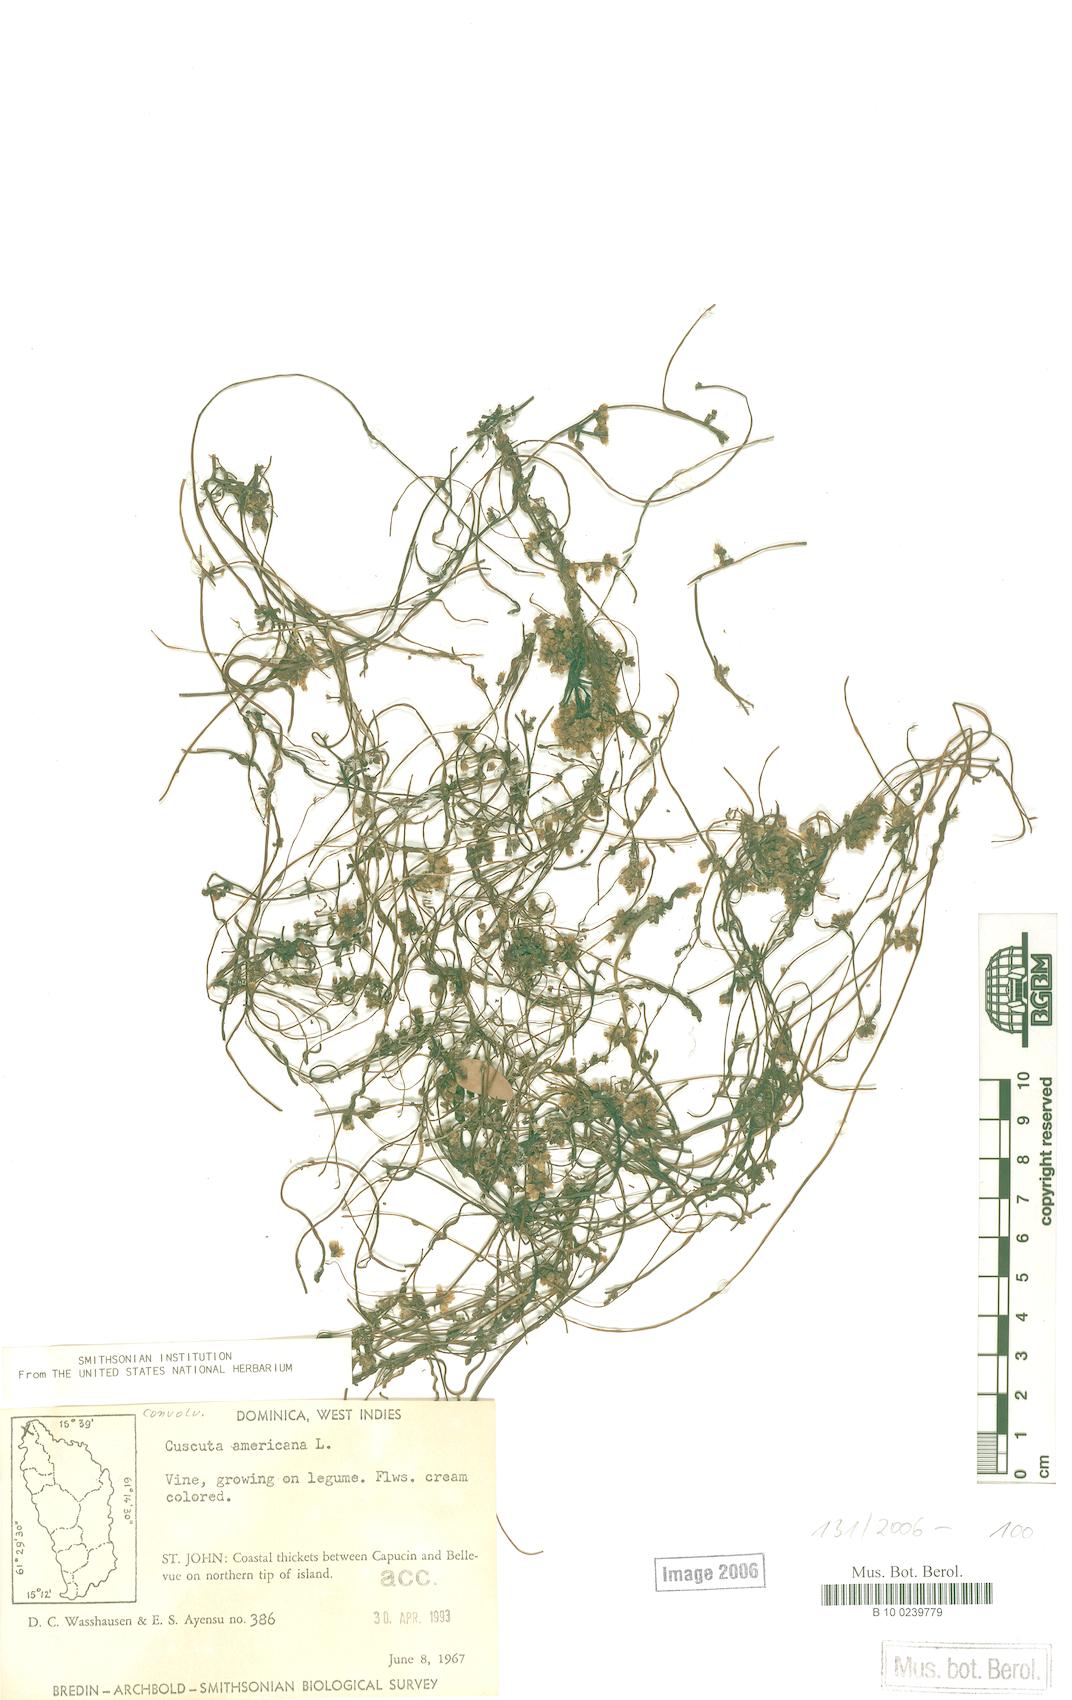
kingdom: Plantae
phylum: Tracheophyta
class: Magnoliopsida
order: Solanales
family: Convolvulaceae
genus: Cuscuta
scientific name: Cuscuta americana
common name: American dodder
